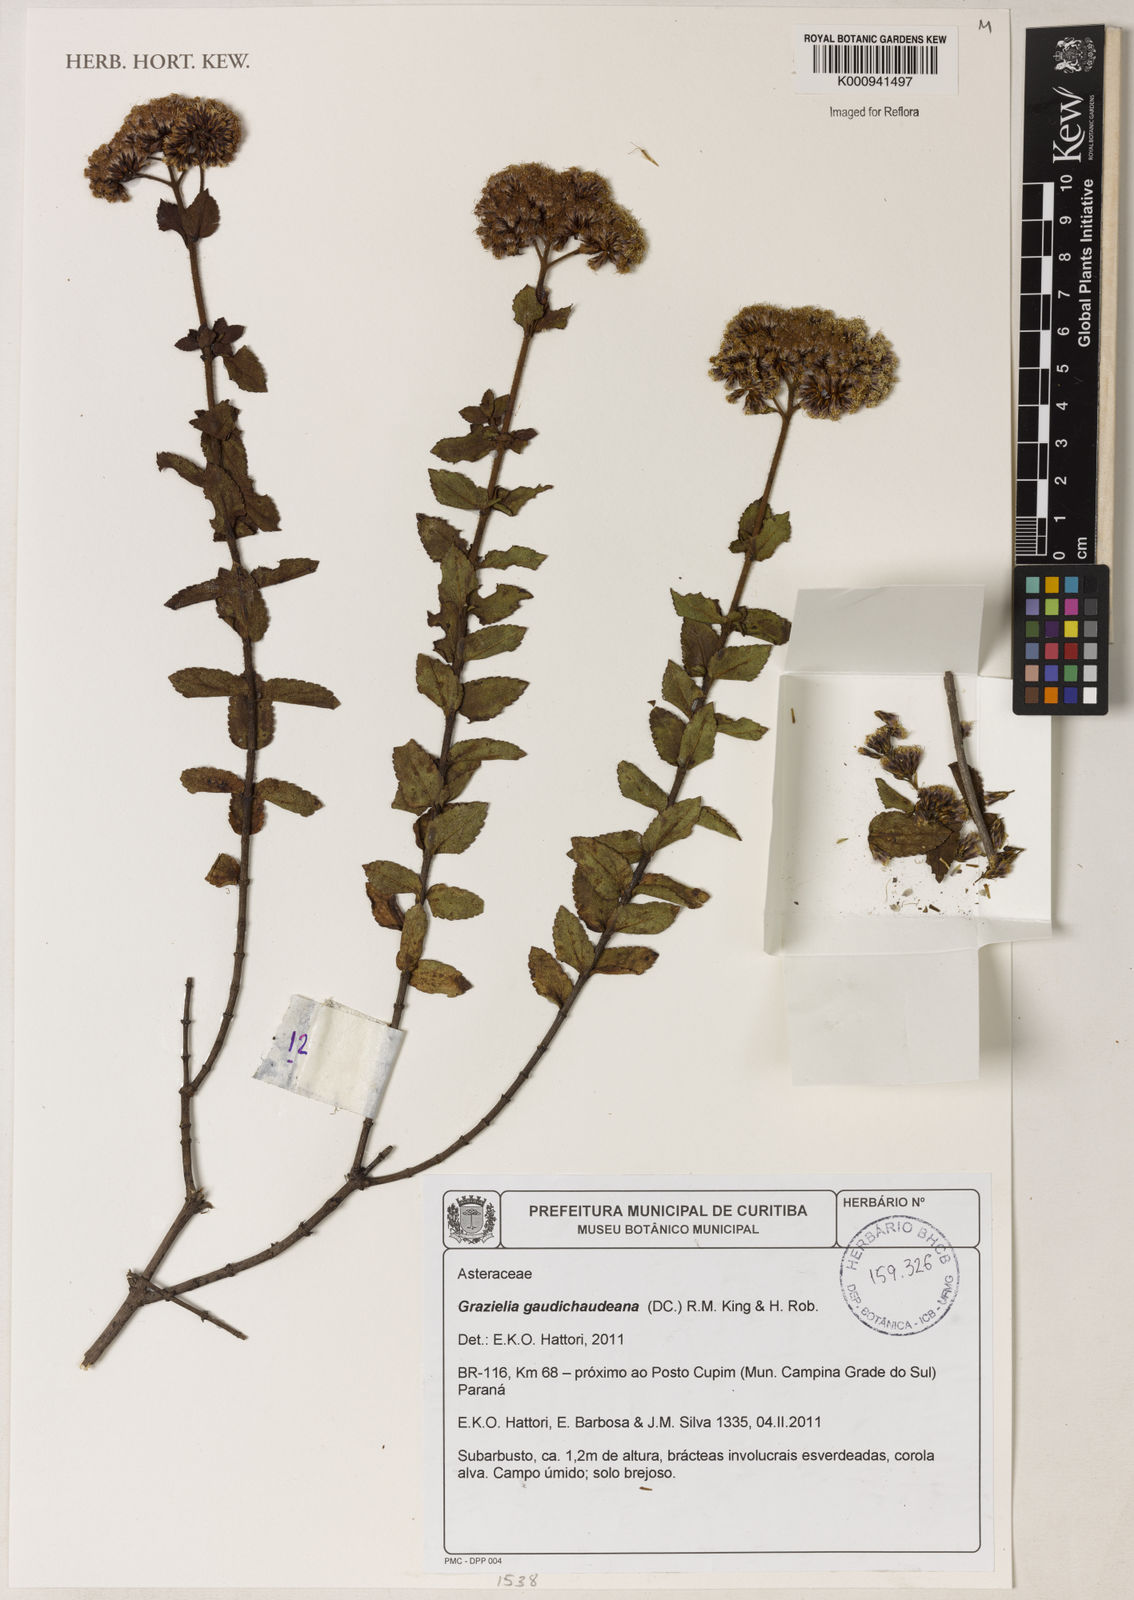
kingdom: Plantae
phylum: Tracheophyta
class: Magnoliopsida
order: Asterales
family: Asteraceae
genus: Grazielia
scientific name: Grazielia
